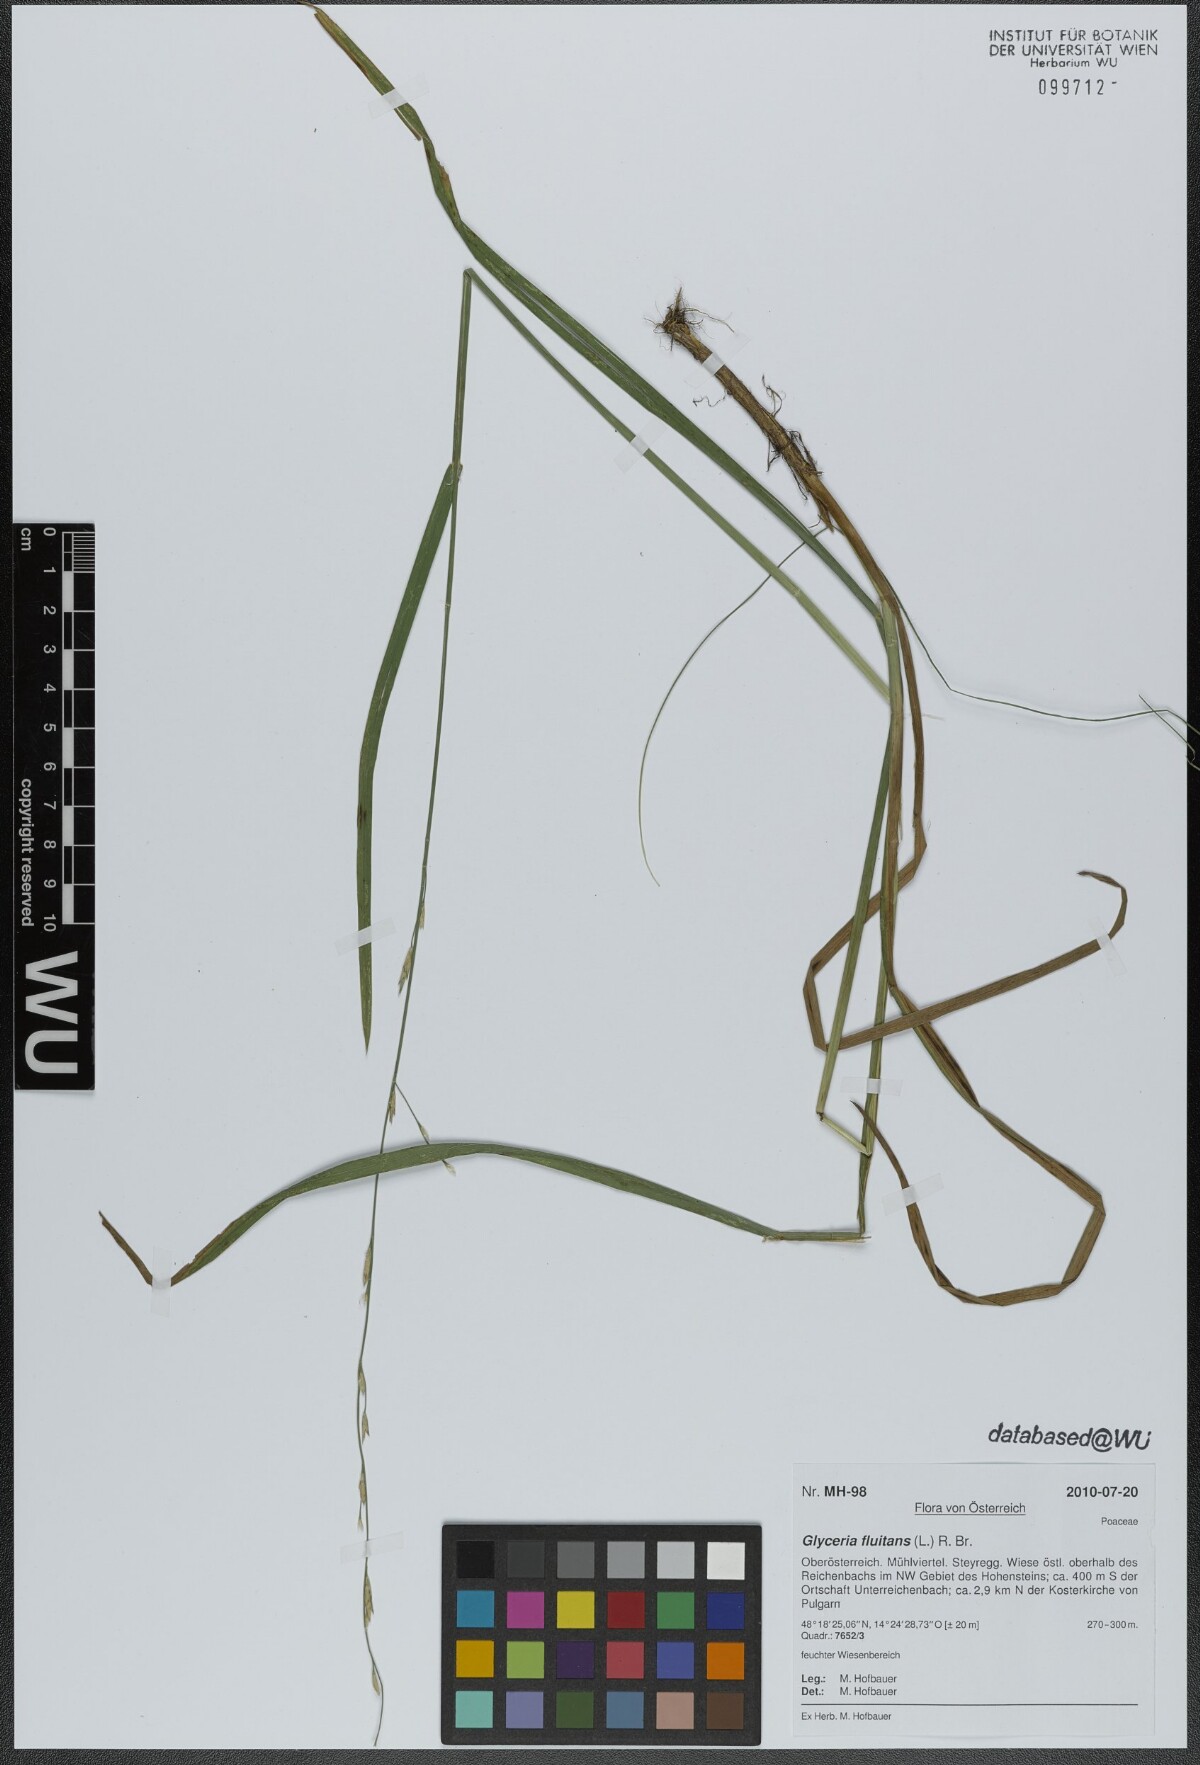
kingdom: Plantae
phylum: Tracheophyta
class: Liliopsida
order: Poales
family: Poaceae
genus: Glyceria
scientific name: Glyceria fluitans
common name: Floating sweet-grass
